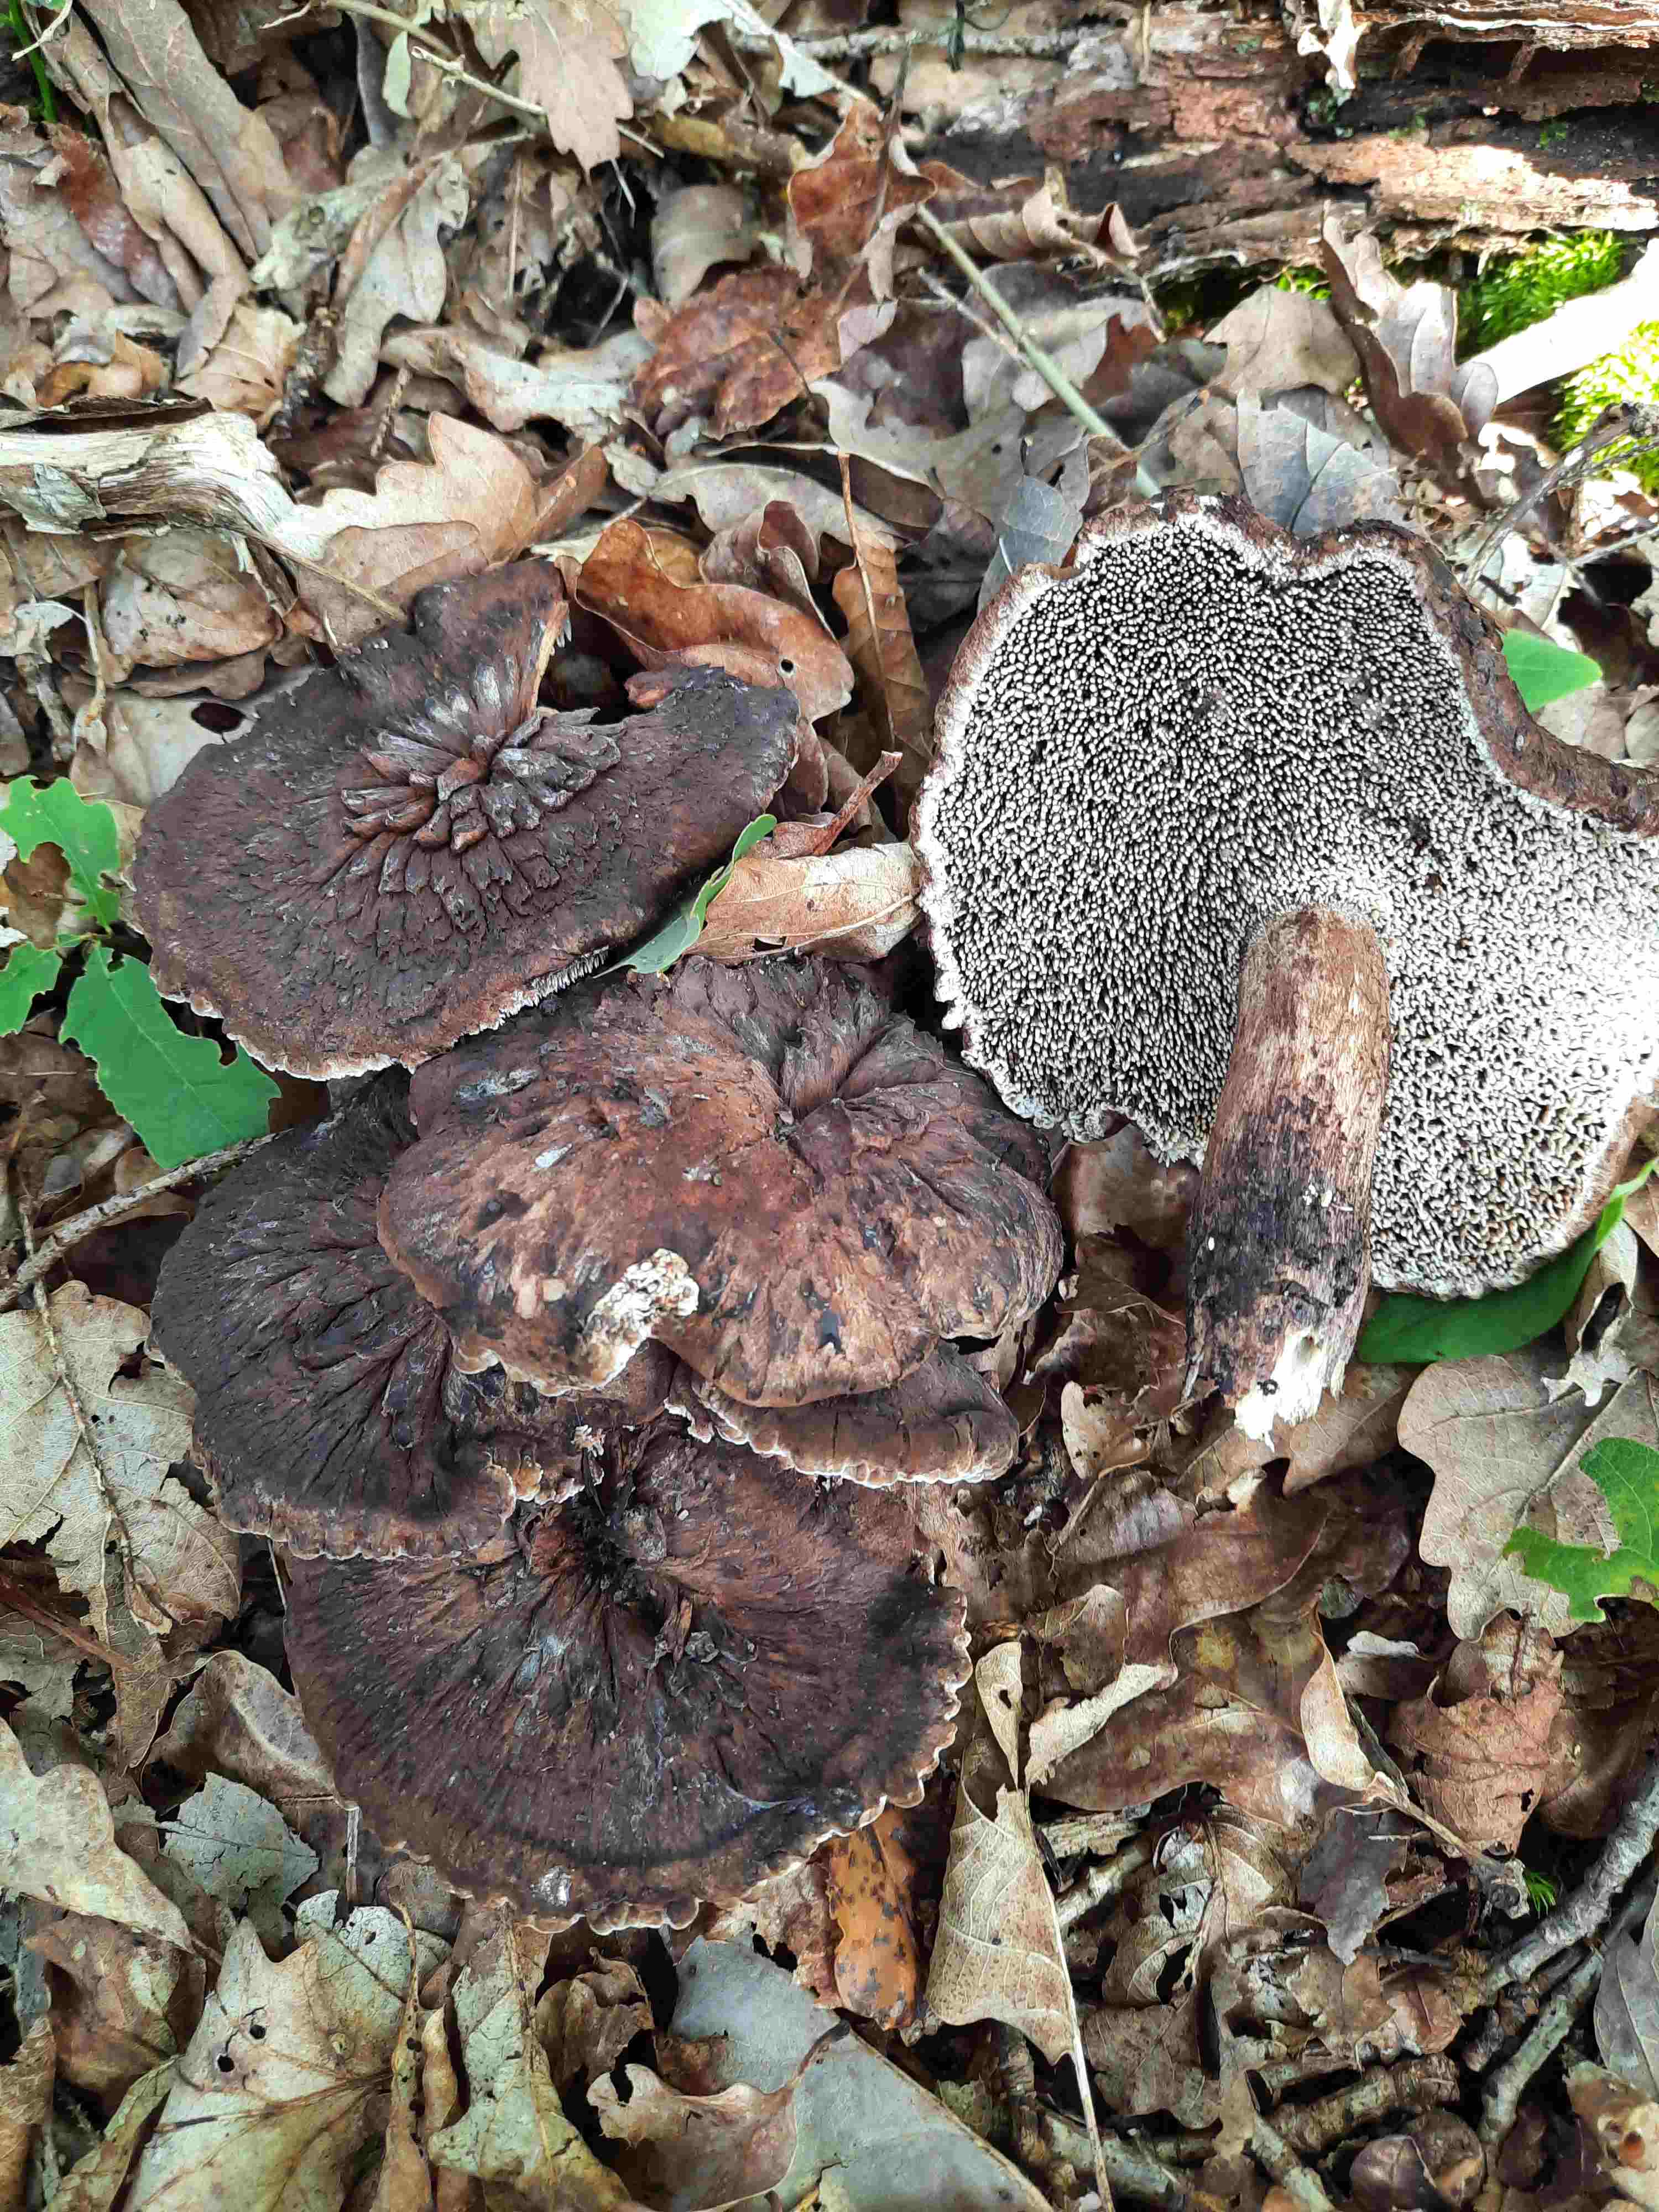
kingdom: Fungi
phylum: Basidiomycota
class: Agaricomycetes
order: Thelephorales
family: Bankeraceae
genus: Hydnellum
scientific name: Hydnellum fagiscabrosum
